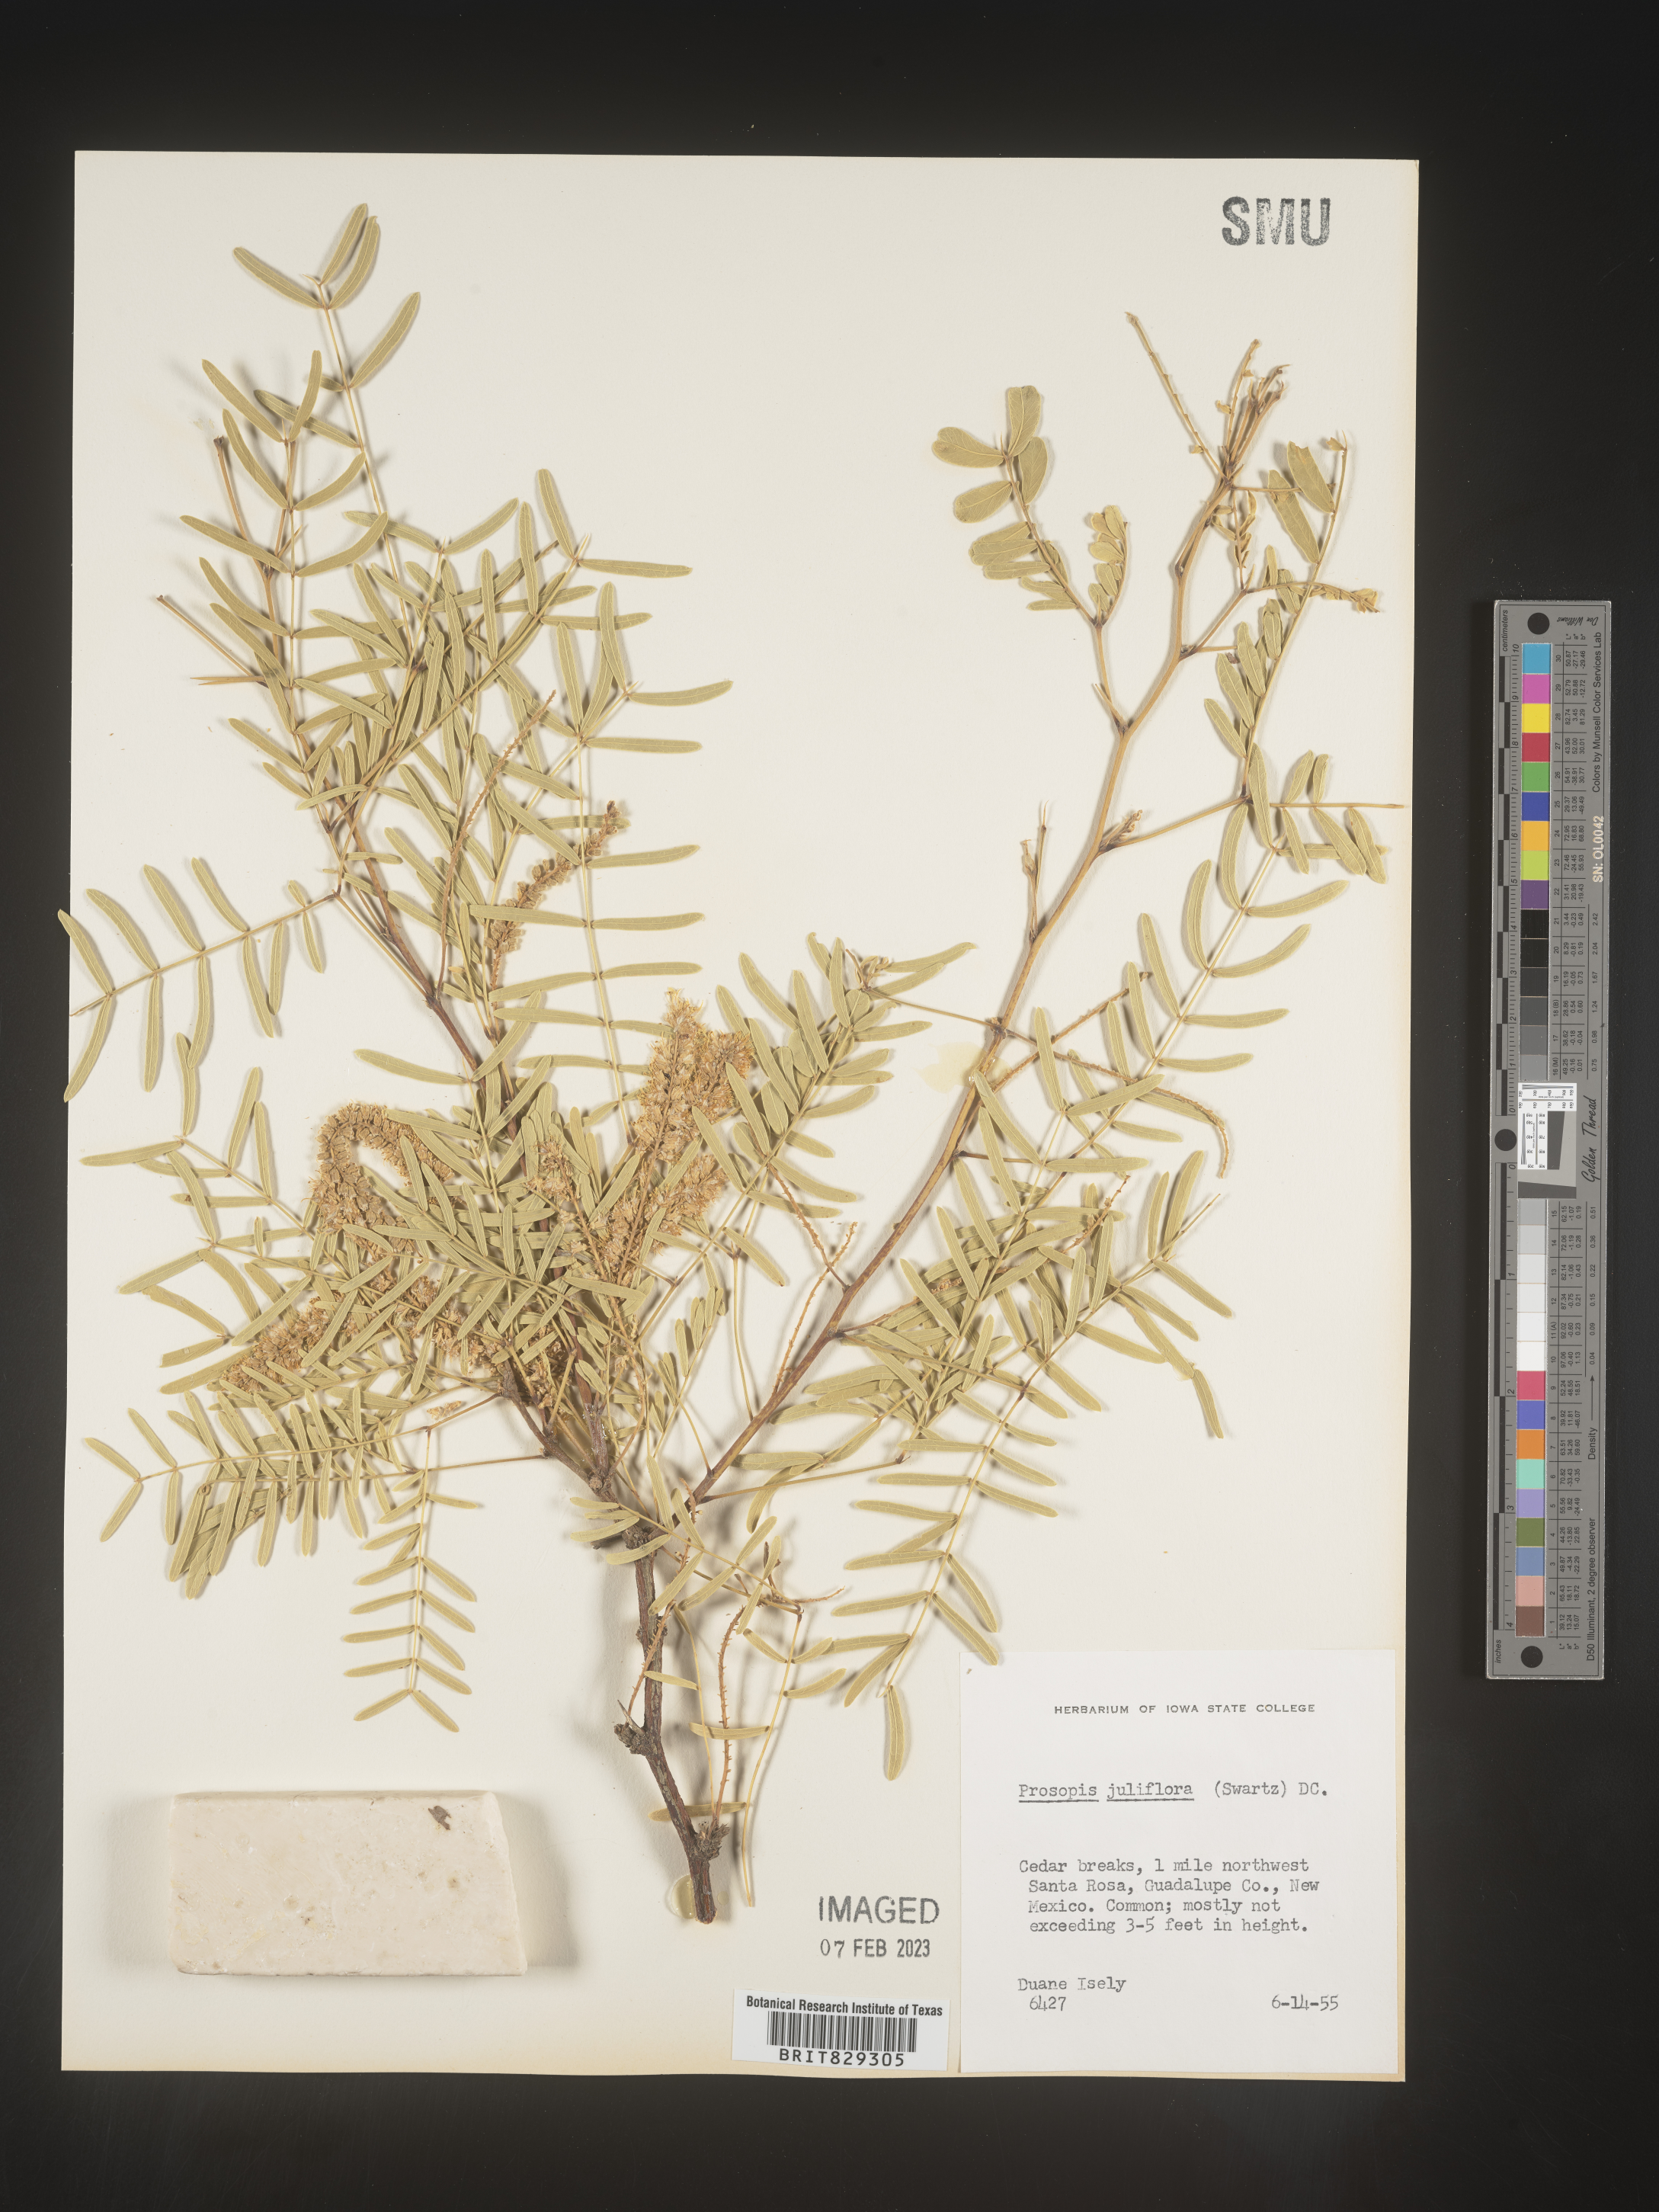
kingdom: Plantae
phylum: Tracheophyta
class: Magnoliopsida
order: Fabales
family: Fabaceae
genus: Prosopis
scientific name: Prosopis juliflora
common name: Mesquite
